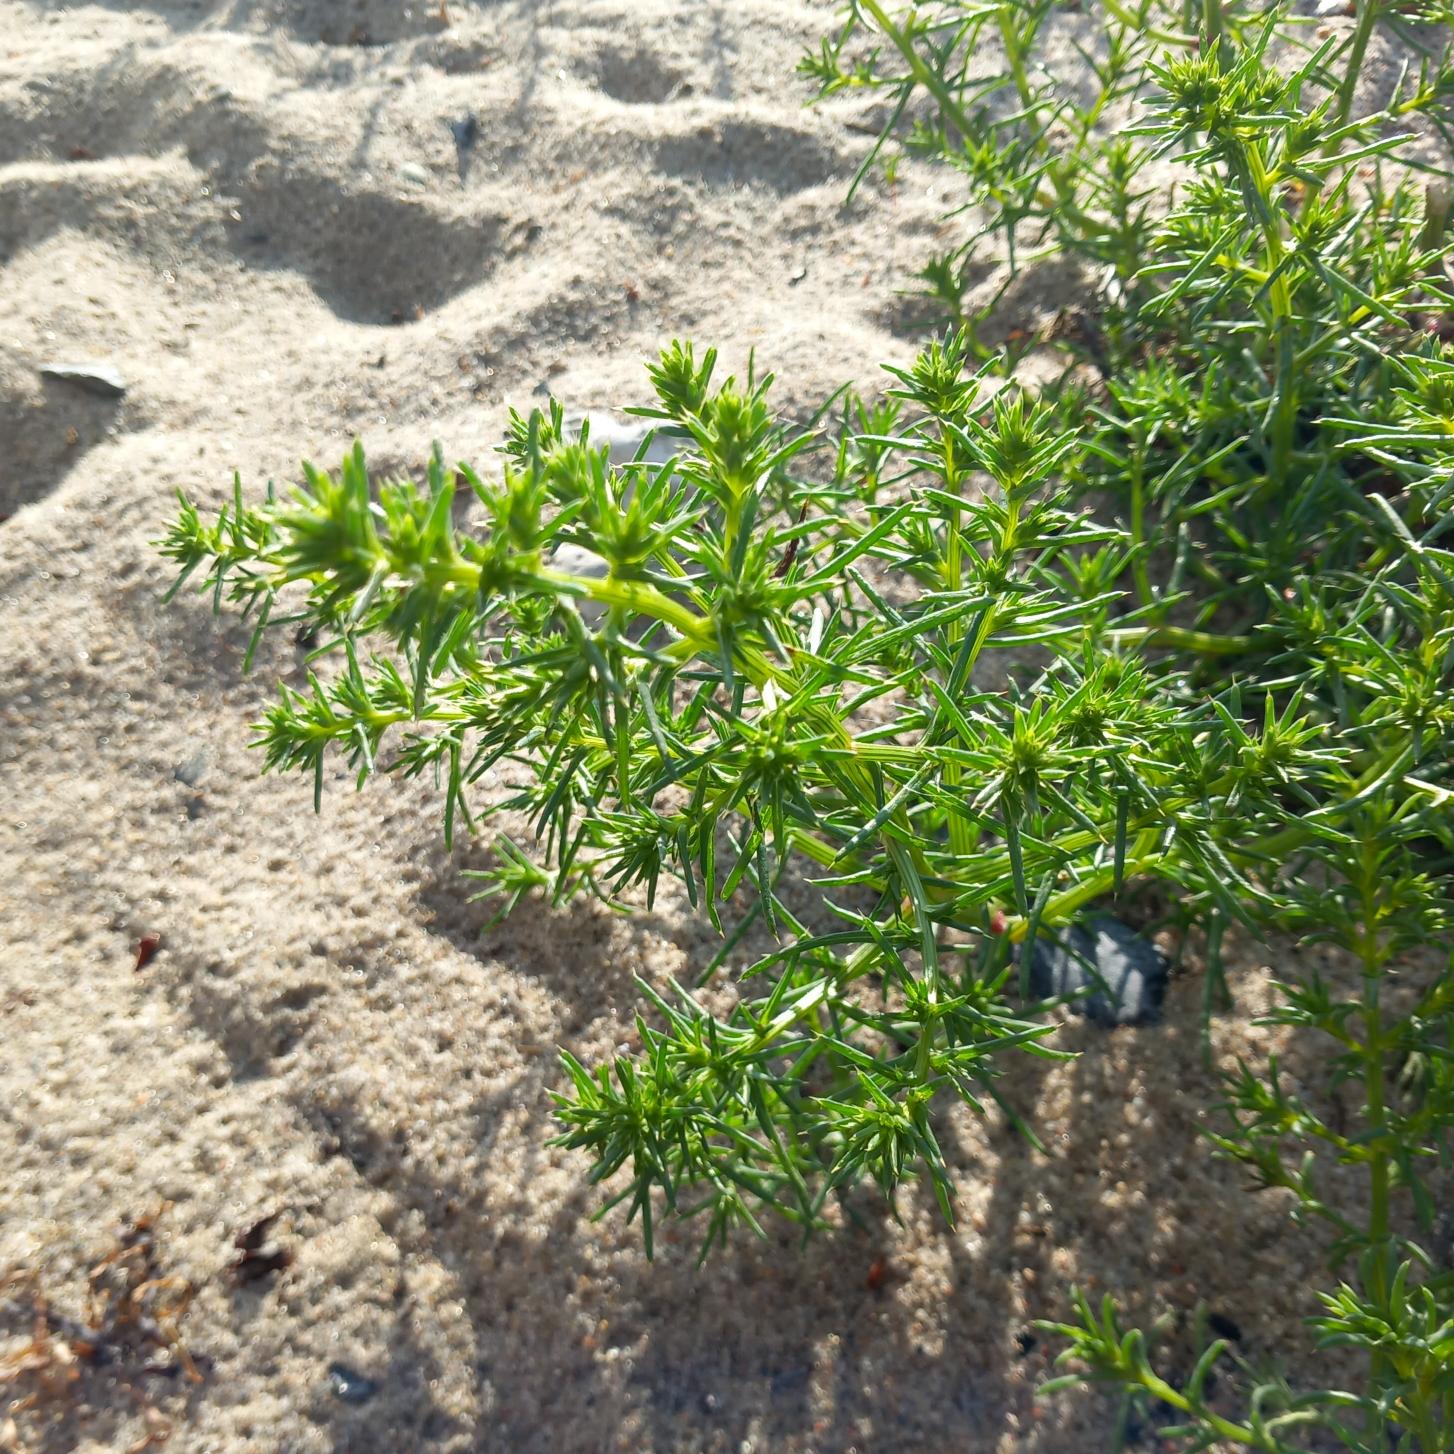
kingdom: Plantae
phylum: Tracheophyta
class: Magnoliopsida
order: Caryophyllales
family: Amaranthaceae
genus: Salsola
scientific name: Salsola kali
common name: Sodaurt
